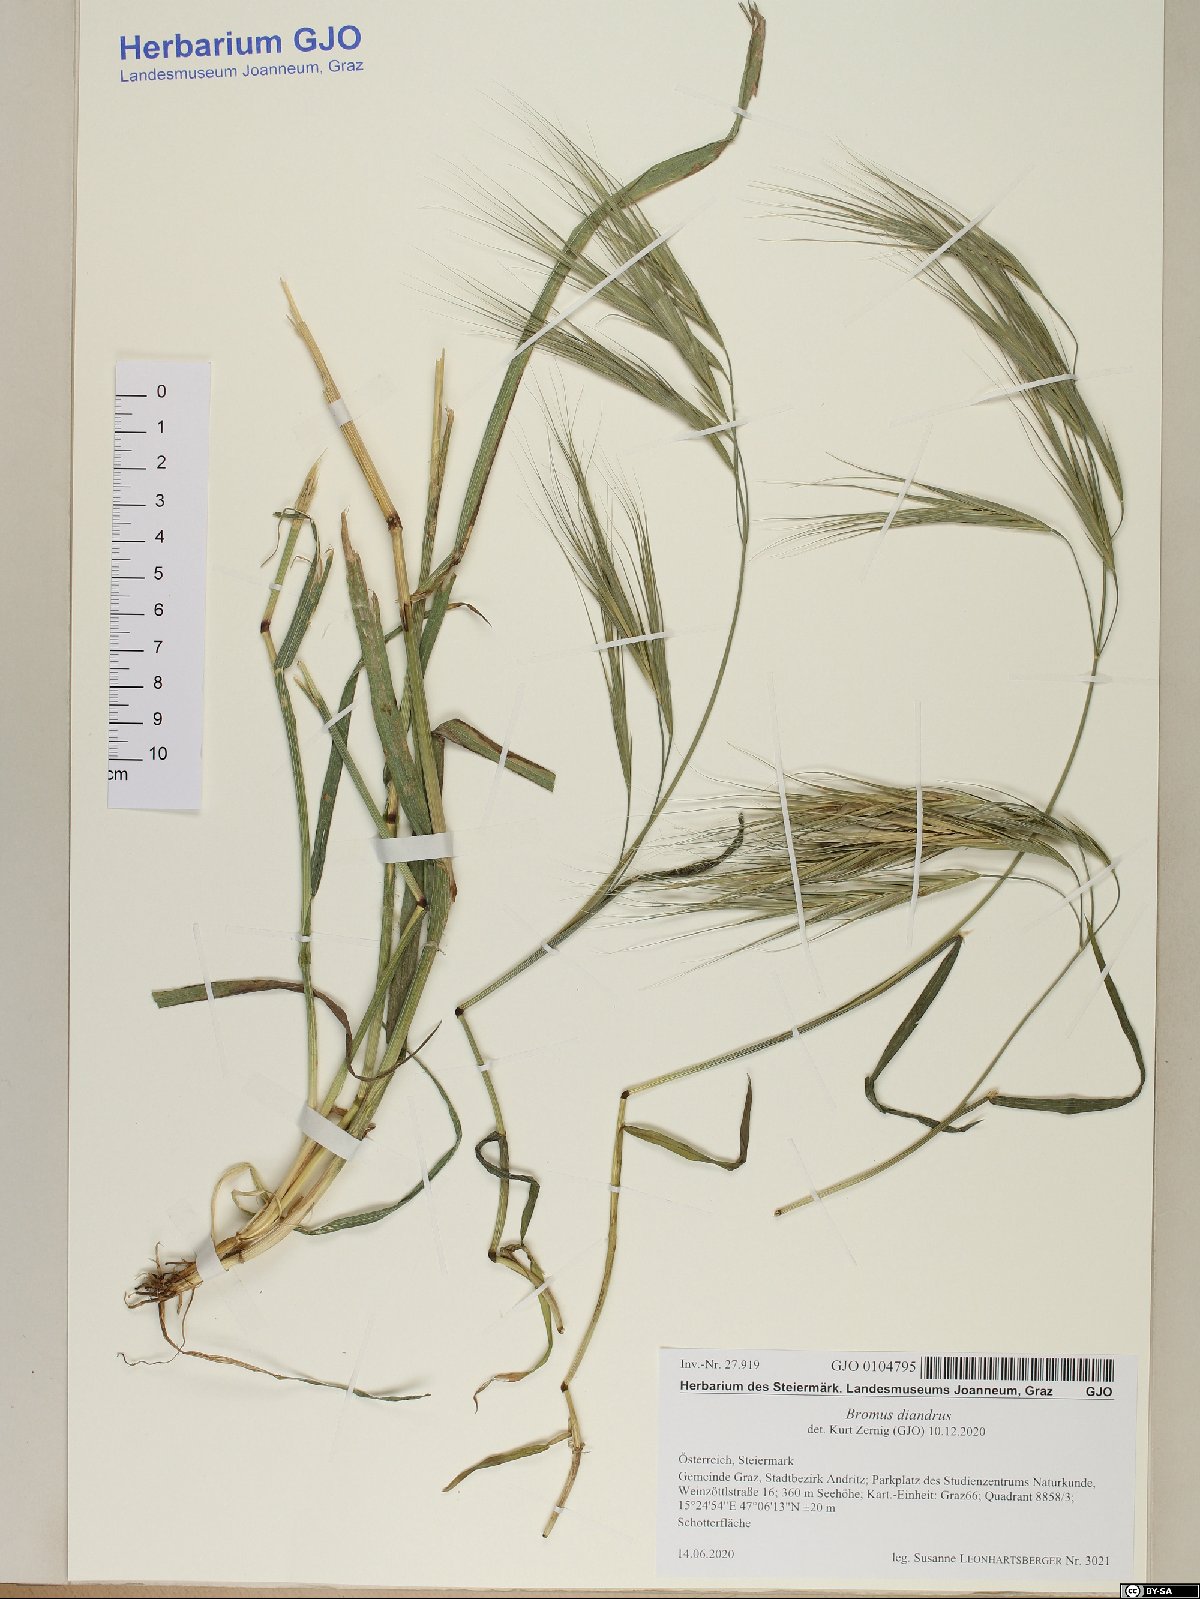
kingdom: Plantae
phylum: Tracheophyta
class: Liliopsida
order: Poales
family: Poaceae
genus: Bromus
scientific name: Bromus diandrus
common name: Ripgut brome
